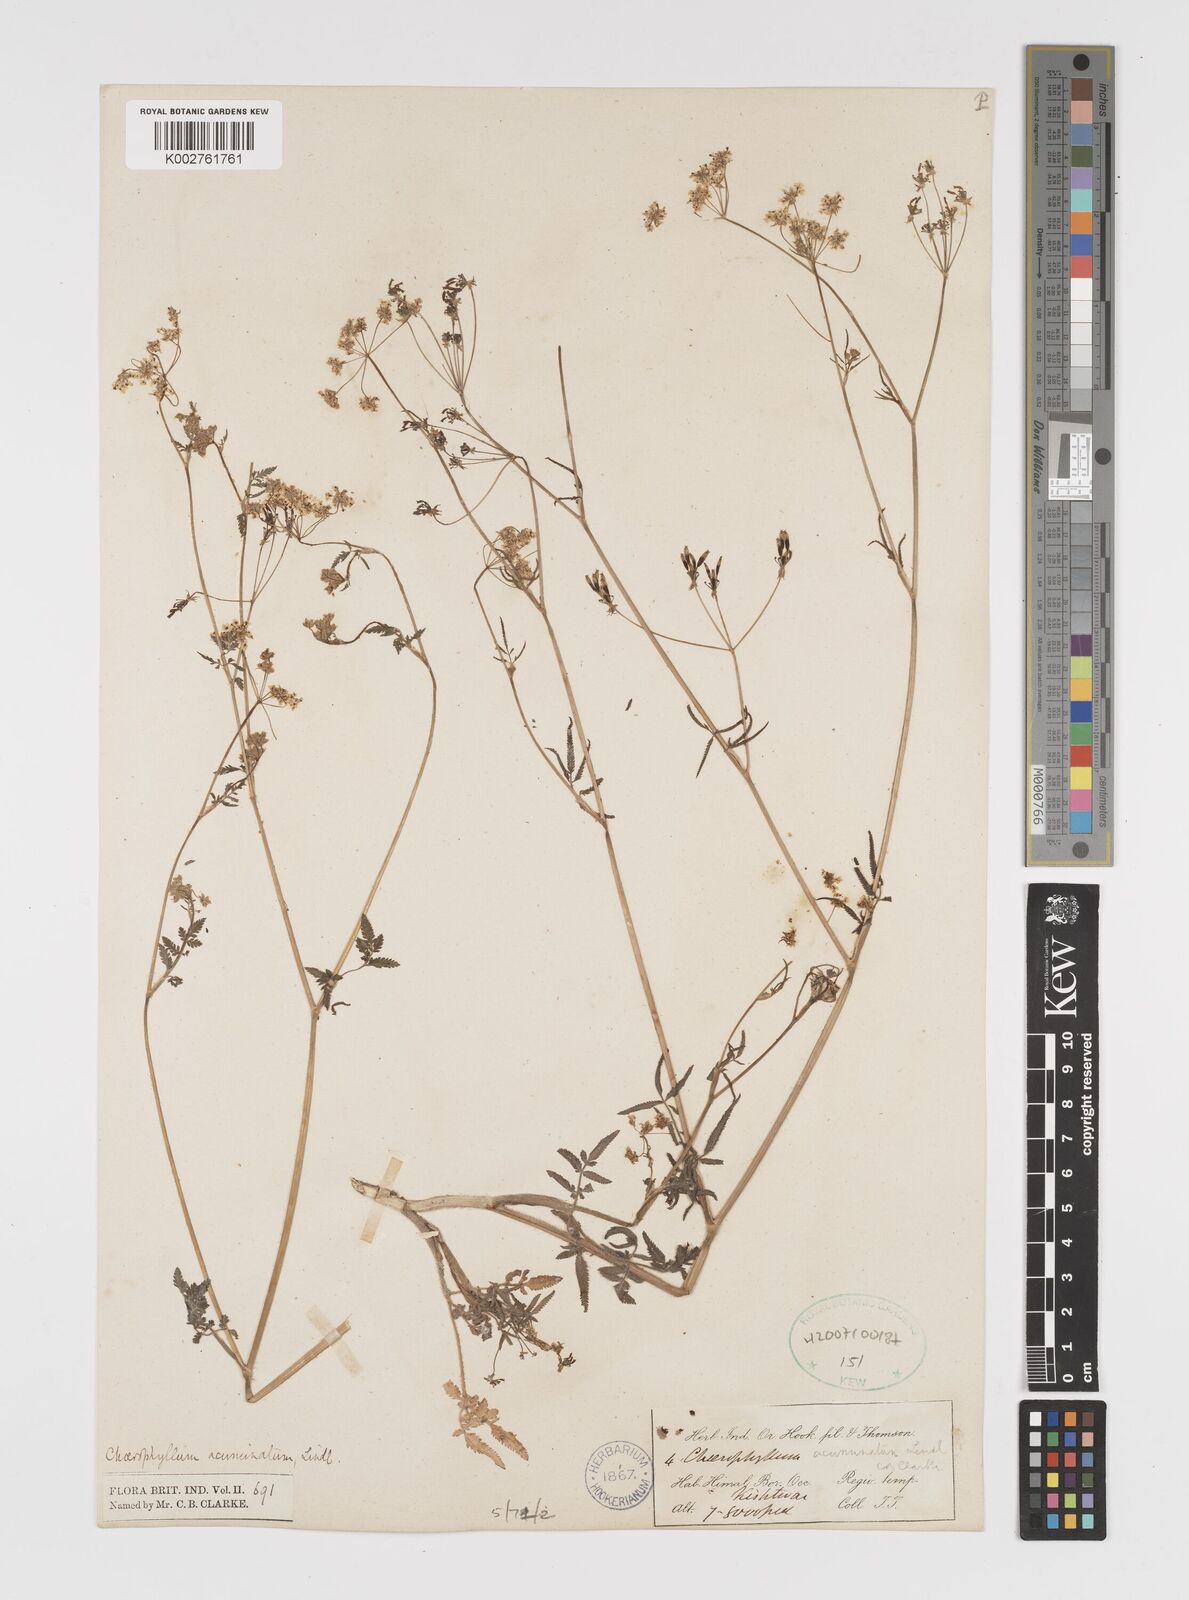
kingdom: Plantae
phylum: Tracheophyta
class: Magnoliopsida
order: Apiales
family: Apiaceae
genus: Chaerophyllum
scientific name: Chaerophyllum reflexum
